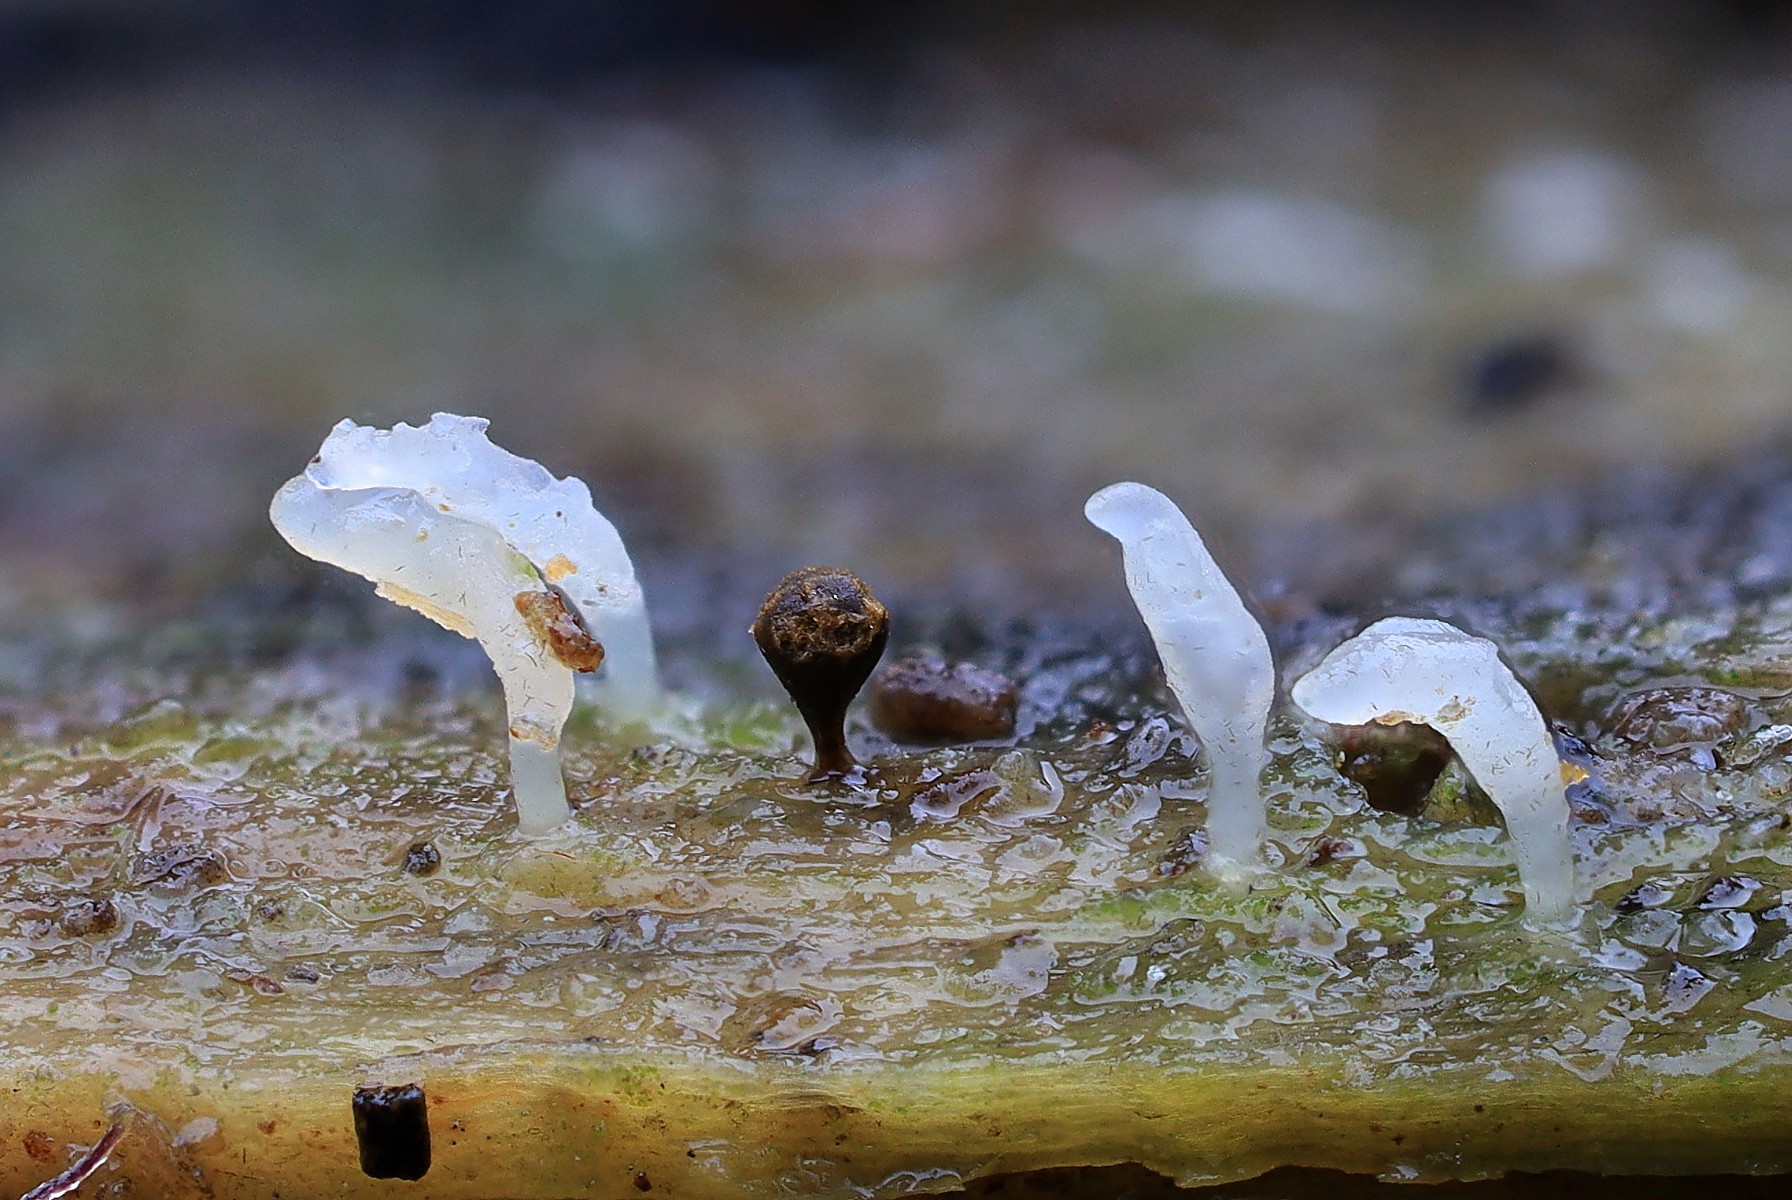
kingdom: Fungi
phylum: Basidiomycota
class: Agaricomycetes
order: Cantharellales
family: Hydnaceae
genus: Multiclavula
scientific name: Multiclavula mucida
